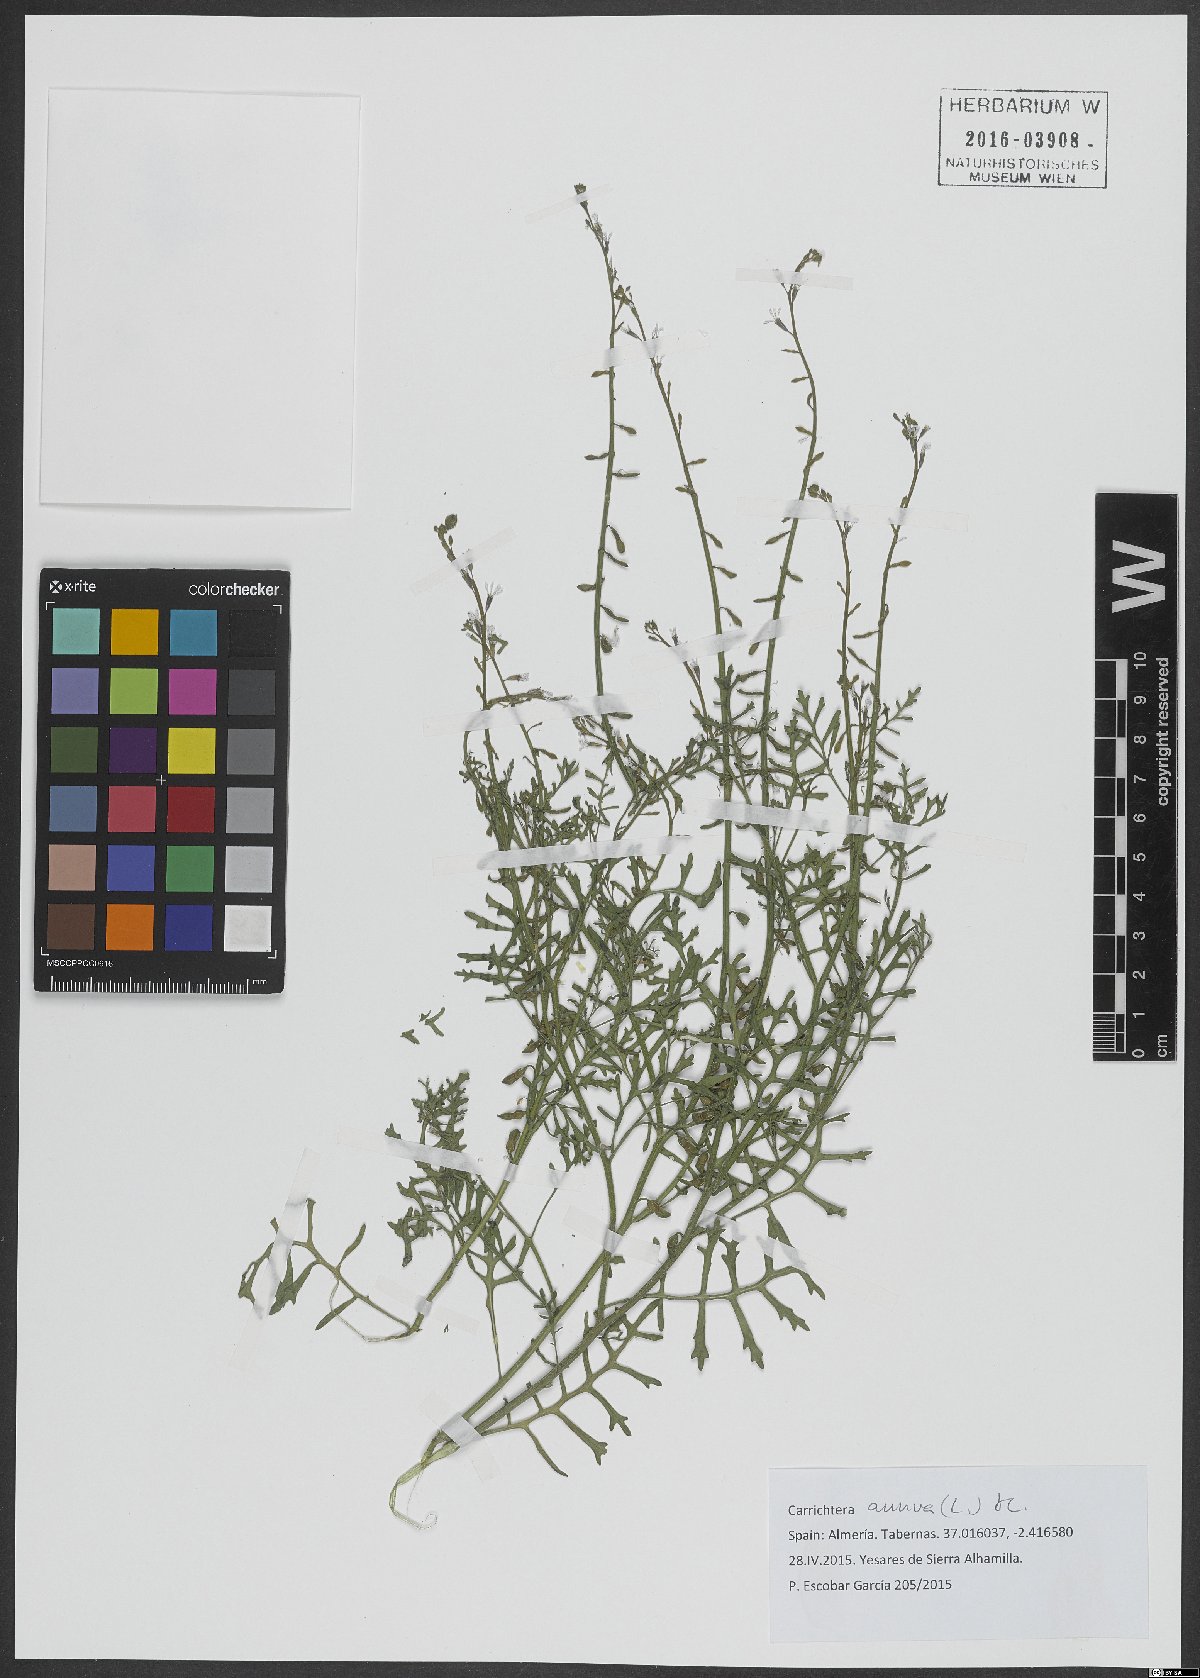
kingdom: Plantae
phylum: Tracheophyta
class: Magnoliopsida
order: Brassicales
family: Brassicaceae
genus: Carrichtera
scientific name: Carrichtera annua
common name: Cress rocket
